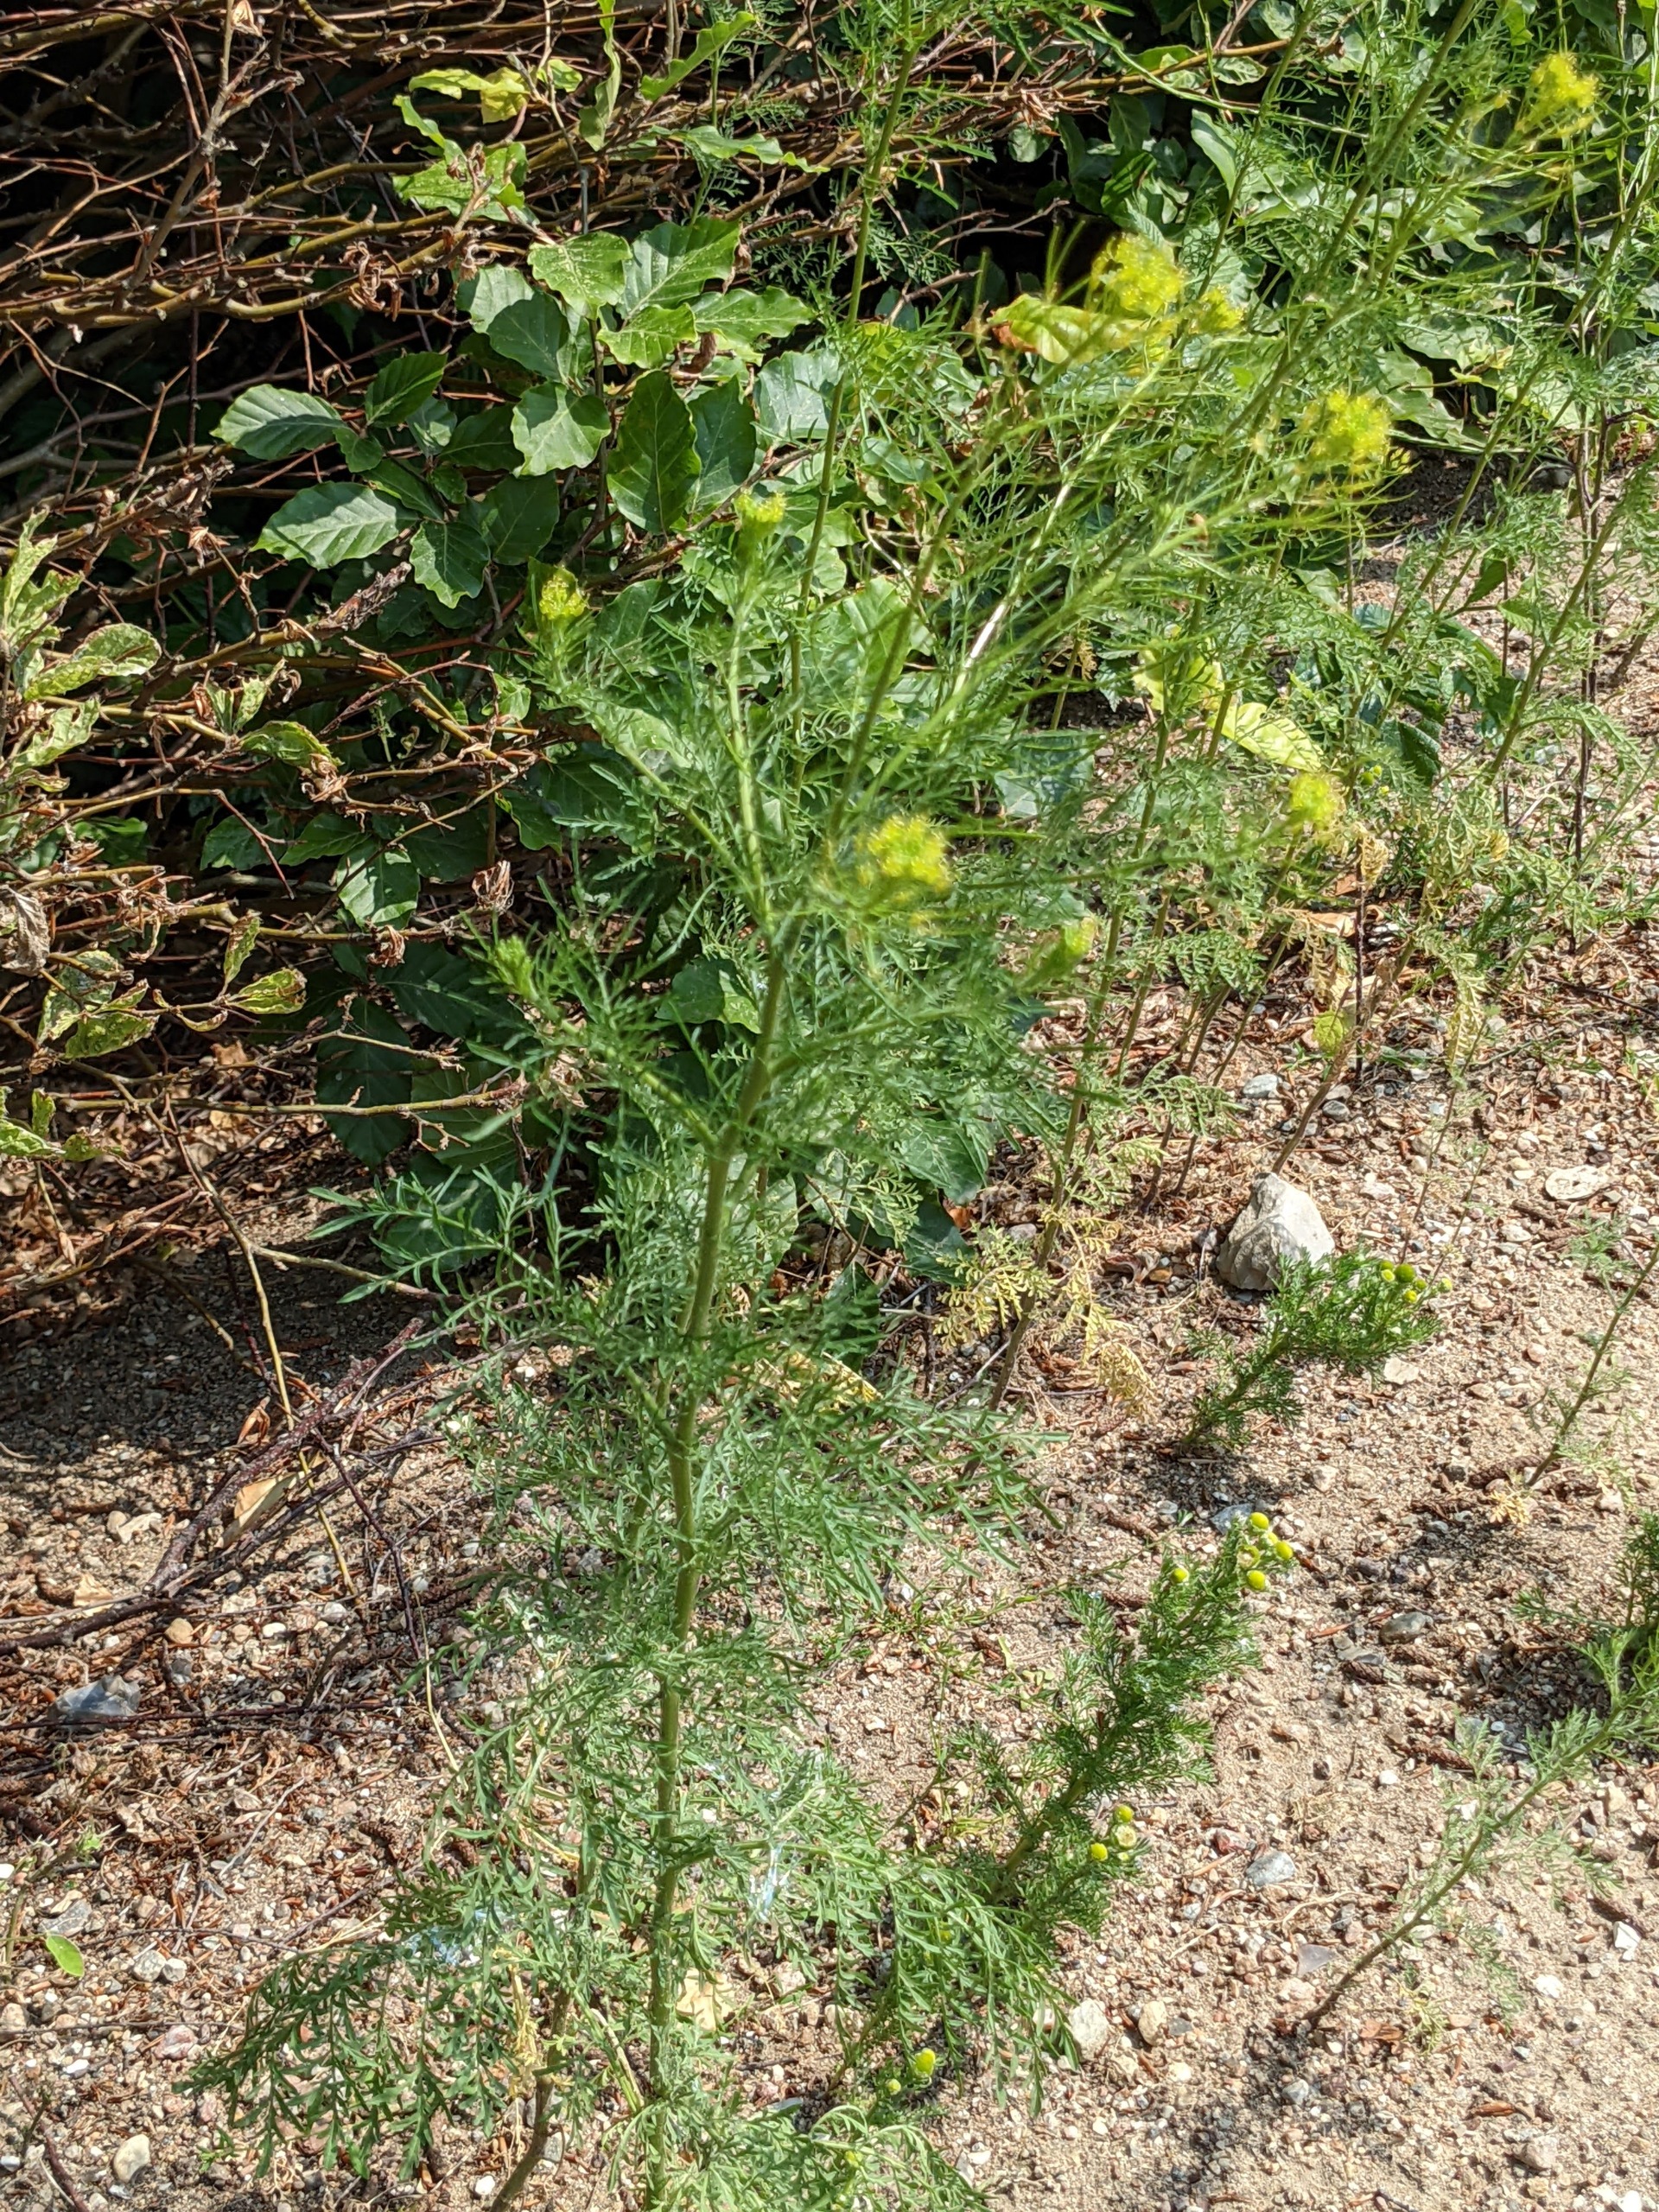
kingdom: Plantae
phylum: Tracheophyta
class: Magnoliopsida
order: Brassicales
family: Brassicaceae
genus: Descurainia
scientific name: Descurainia sophia
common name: Finbladet vejsennep
